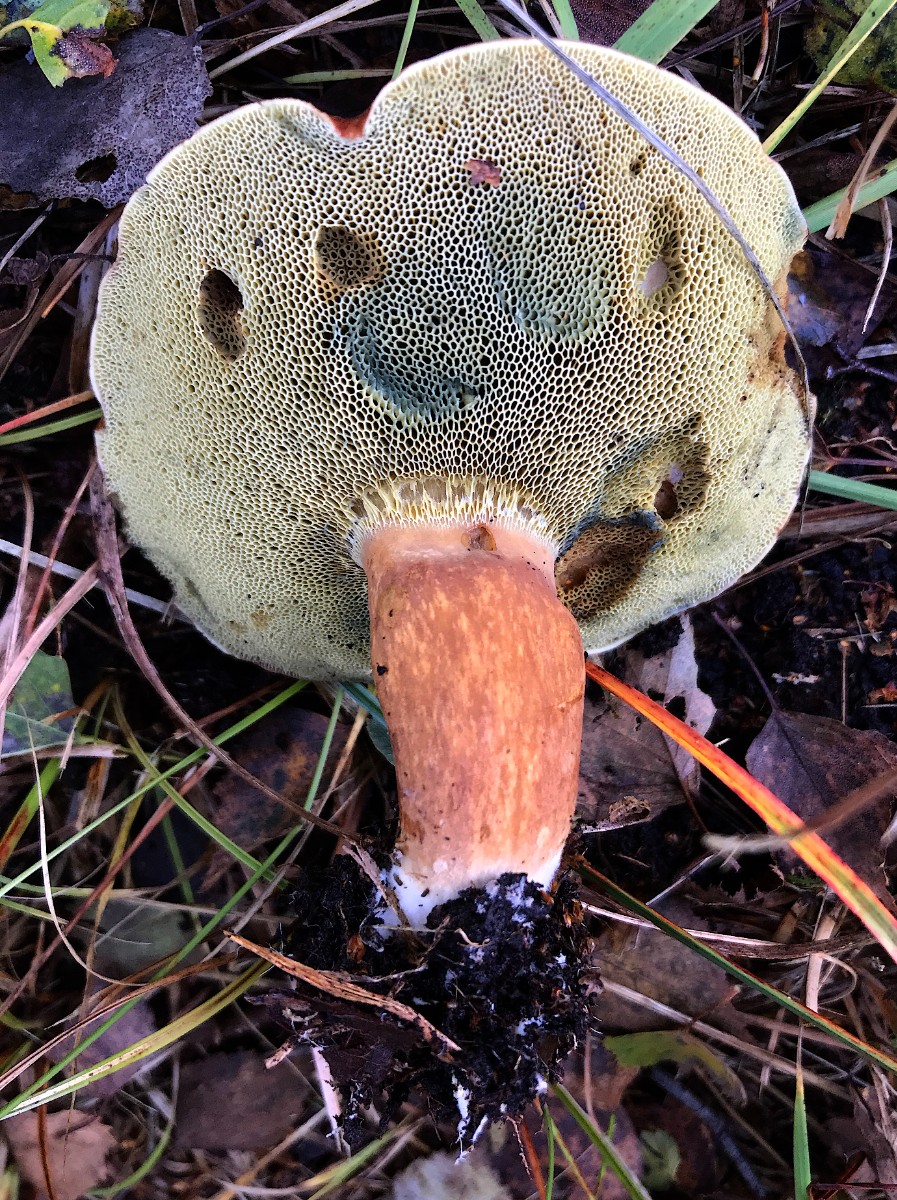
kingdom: Fungi
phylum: Basidiomycota
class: Agaricomycetes
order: Boletales
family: Boletaceae
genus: Imleria
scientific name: Imleria badia
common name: brunstokket rørhat
